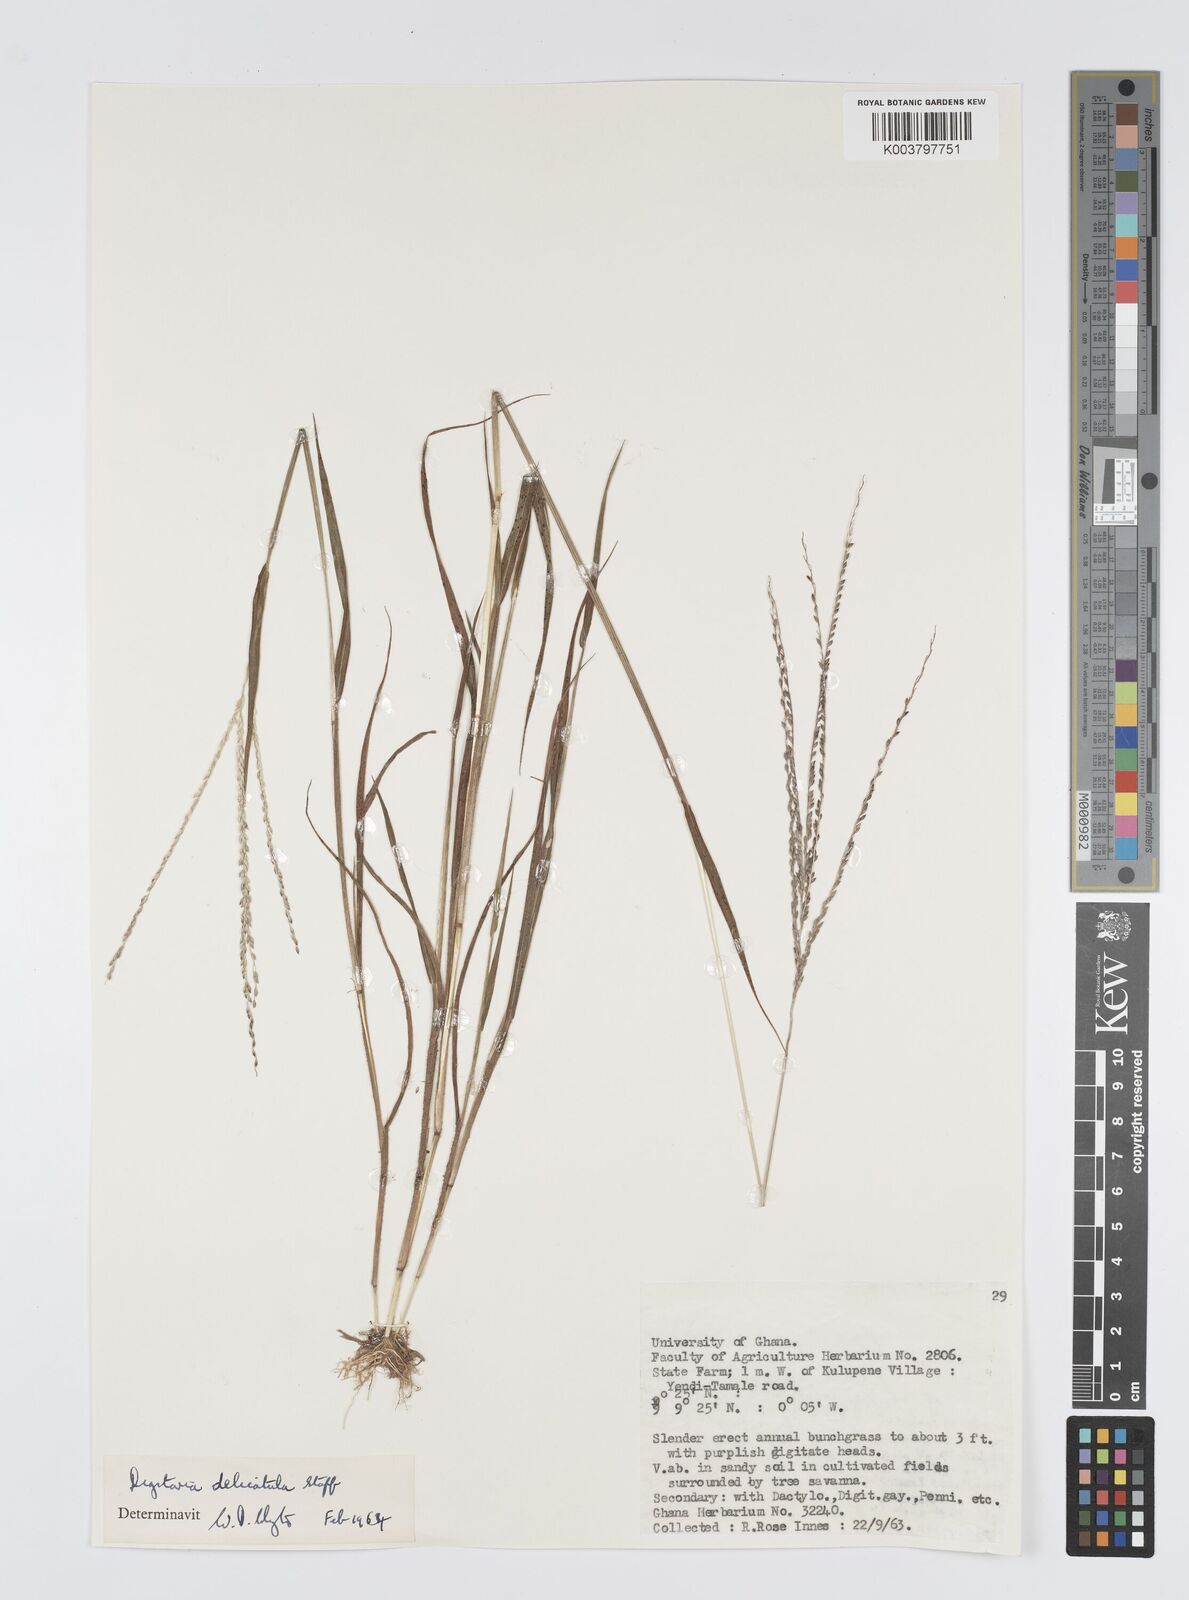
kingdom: Plantae
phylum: Tracheophyta
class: Liliopsida
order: Poales
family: Poaceae
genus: Digitaria
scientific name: Digitaria delicatula
